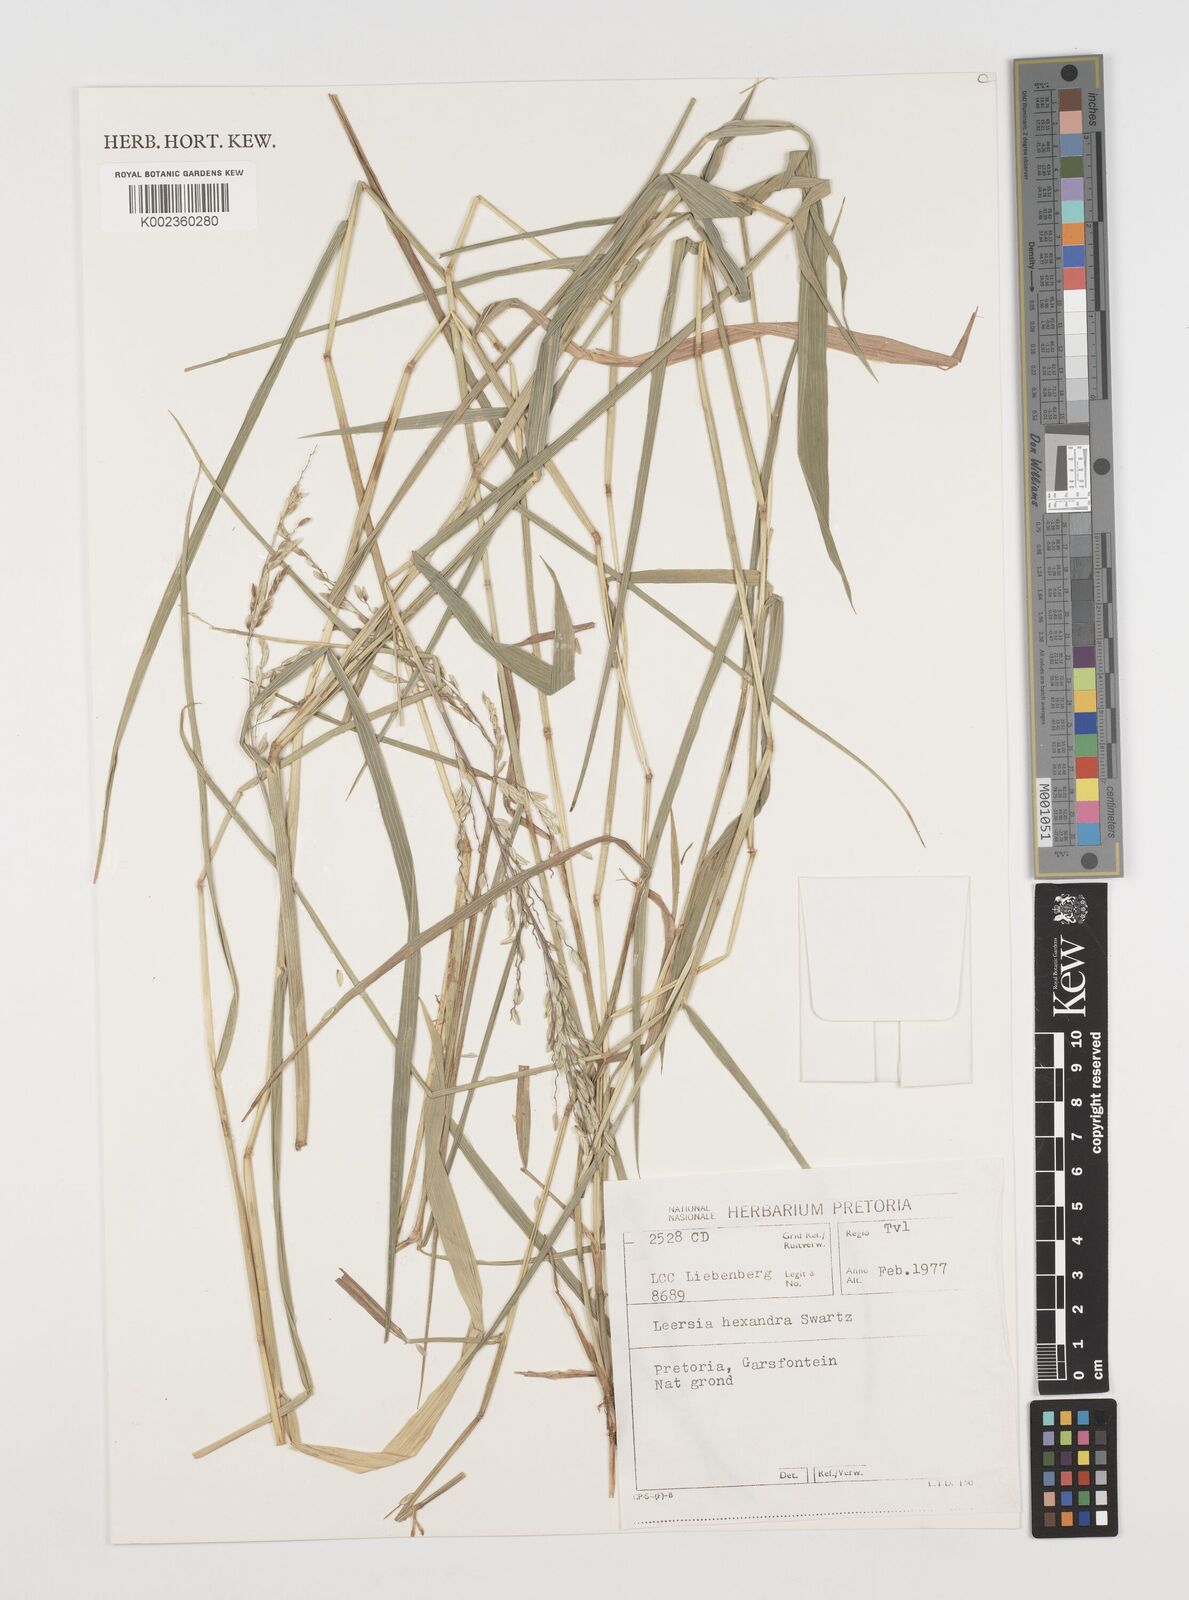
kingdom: Plantae
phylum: Tracheophyta
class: Liliopsida
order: Poales
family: Poaceae
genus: Leersia
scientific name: Leersia hexandra
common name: Southern cut grass
